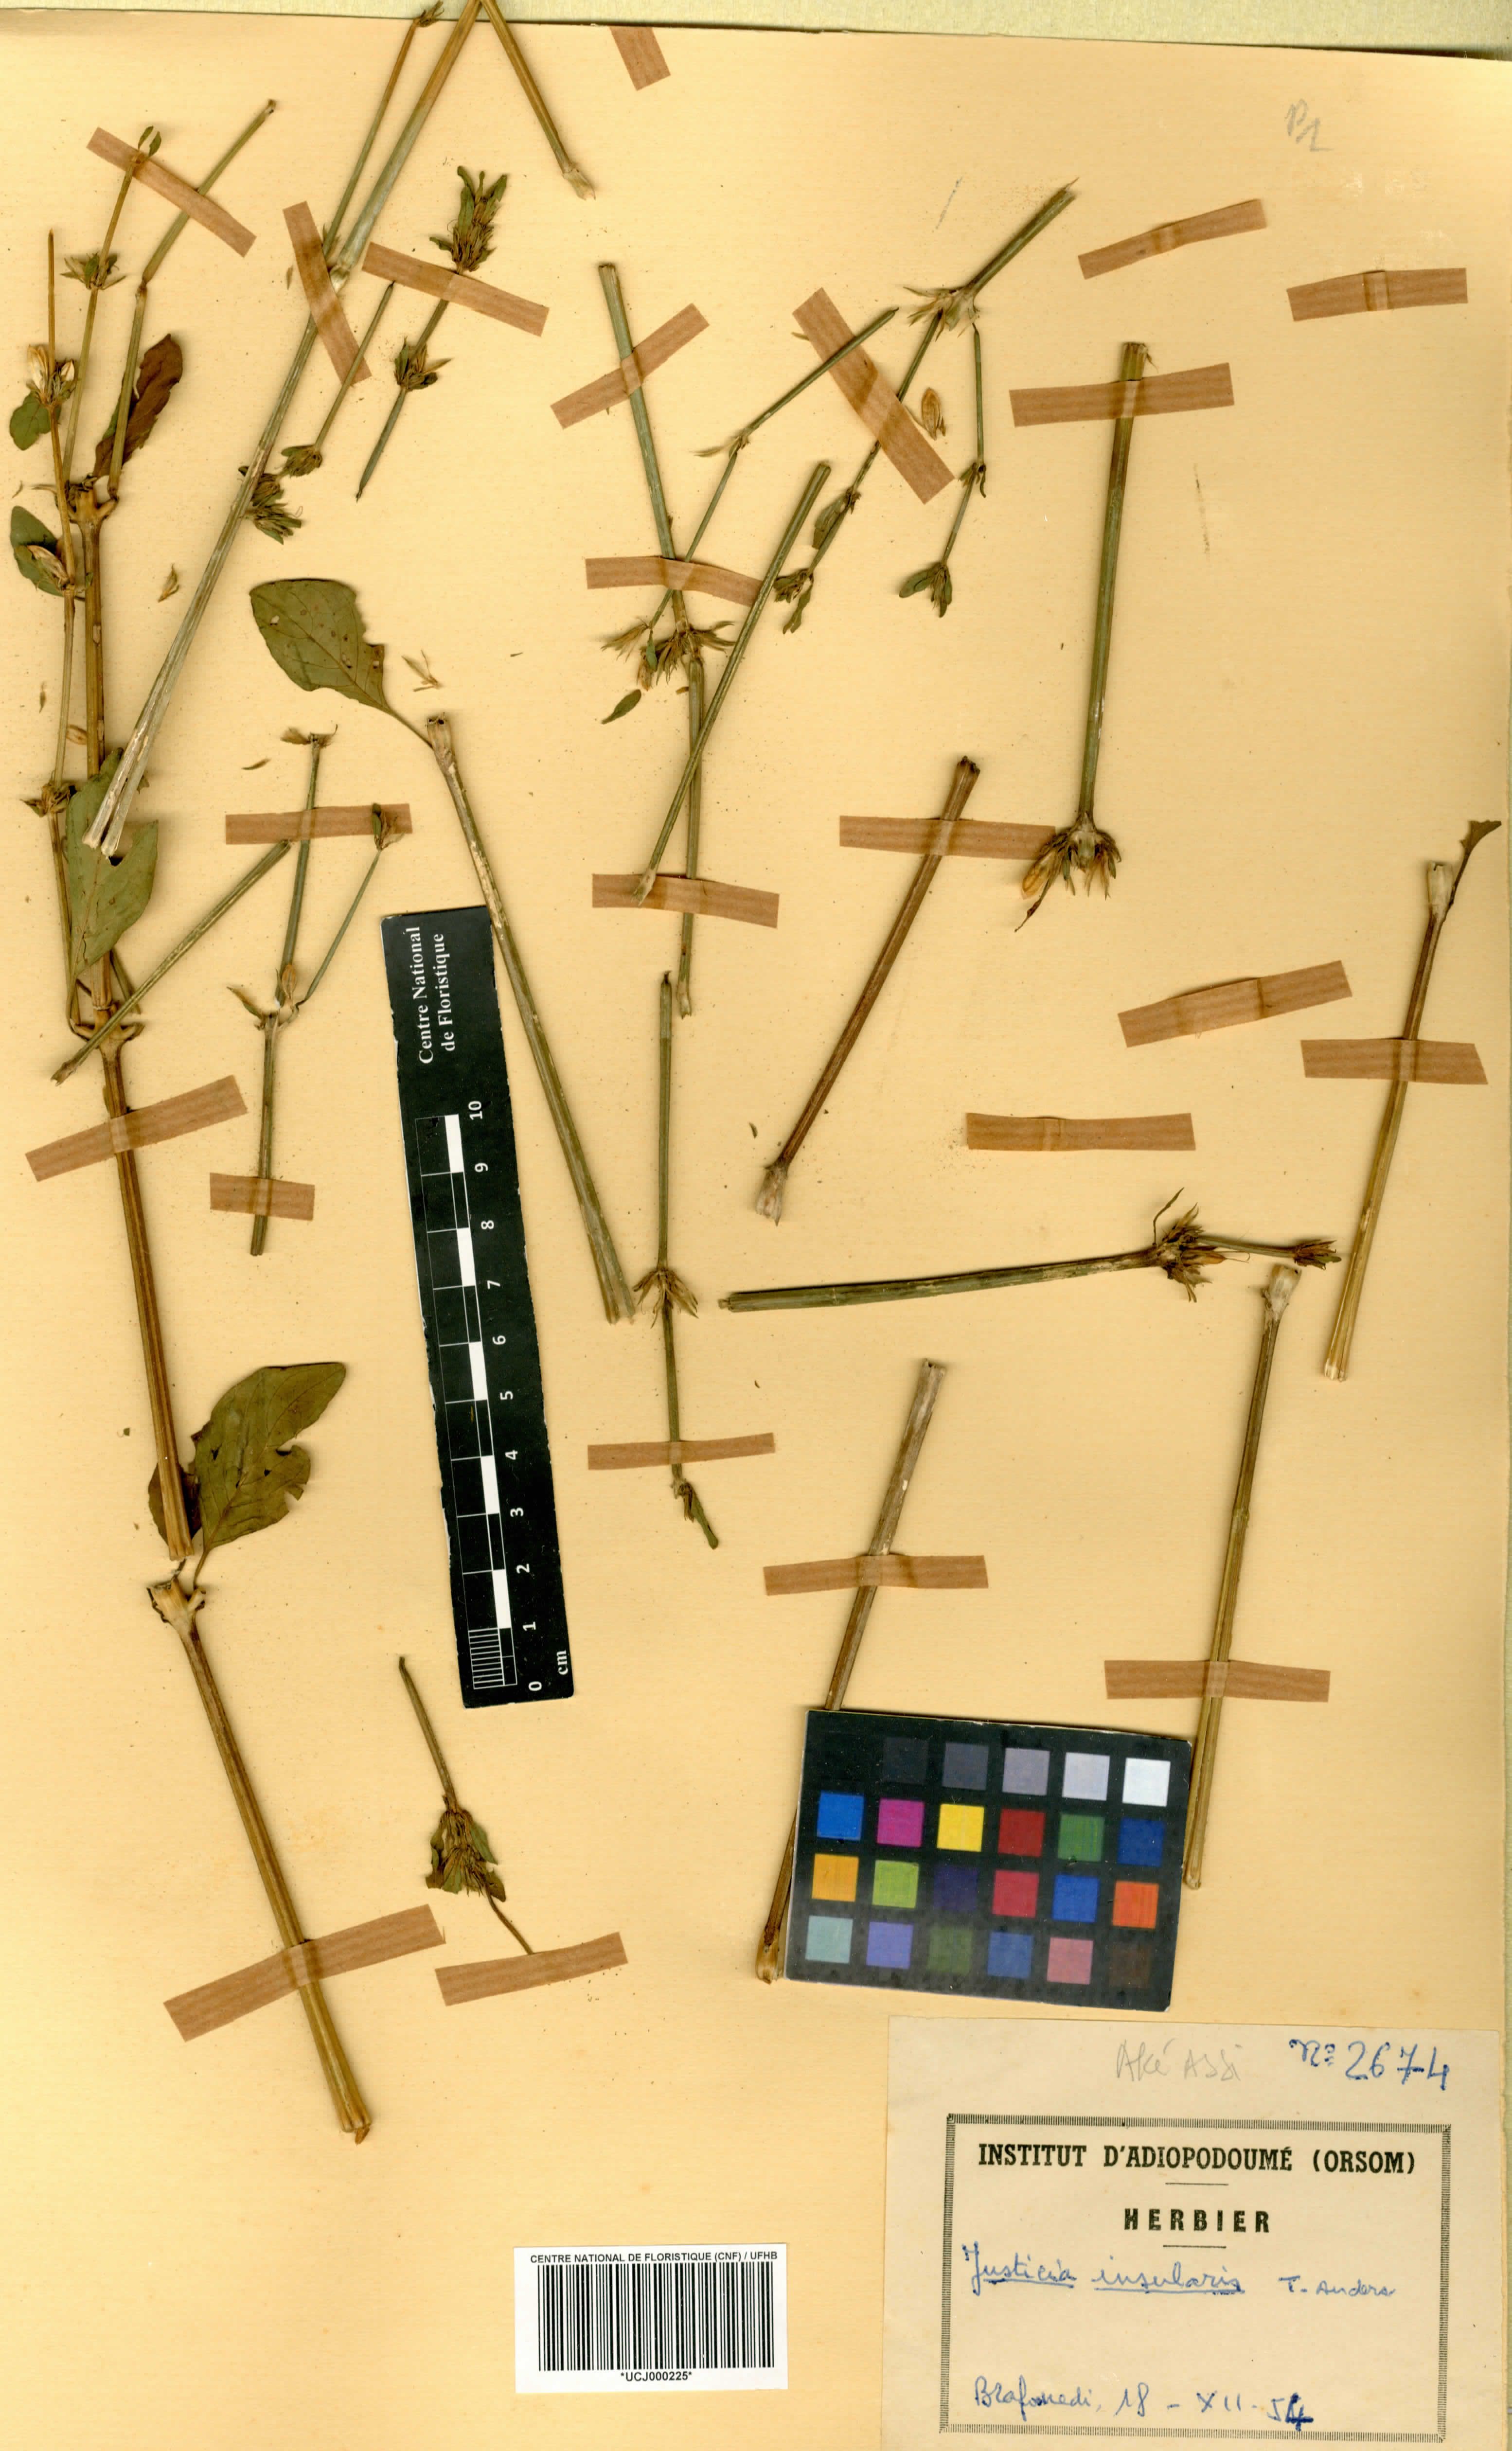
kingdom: Plantae
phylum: Tracheophyta
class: Magnoliopsida
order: Lamiales
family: Acanthaceae
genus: Justicia
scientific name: Justicia insularis
